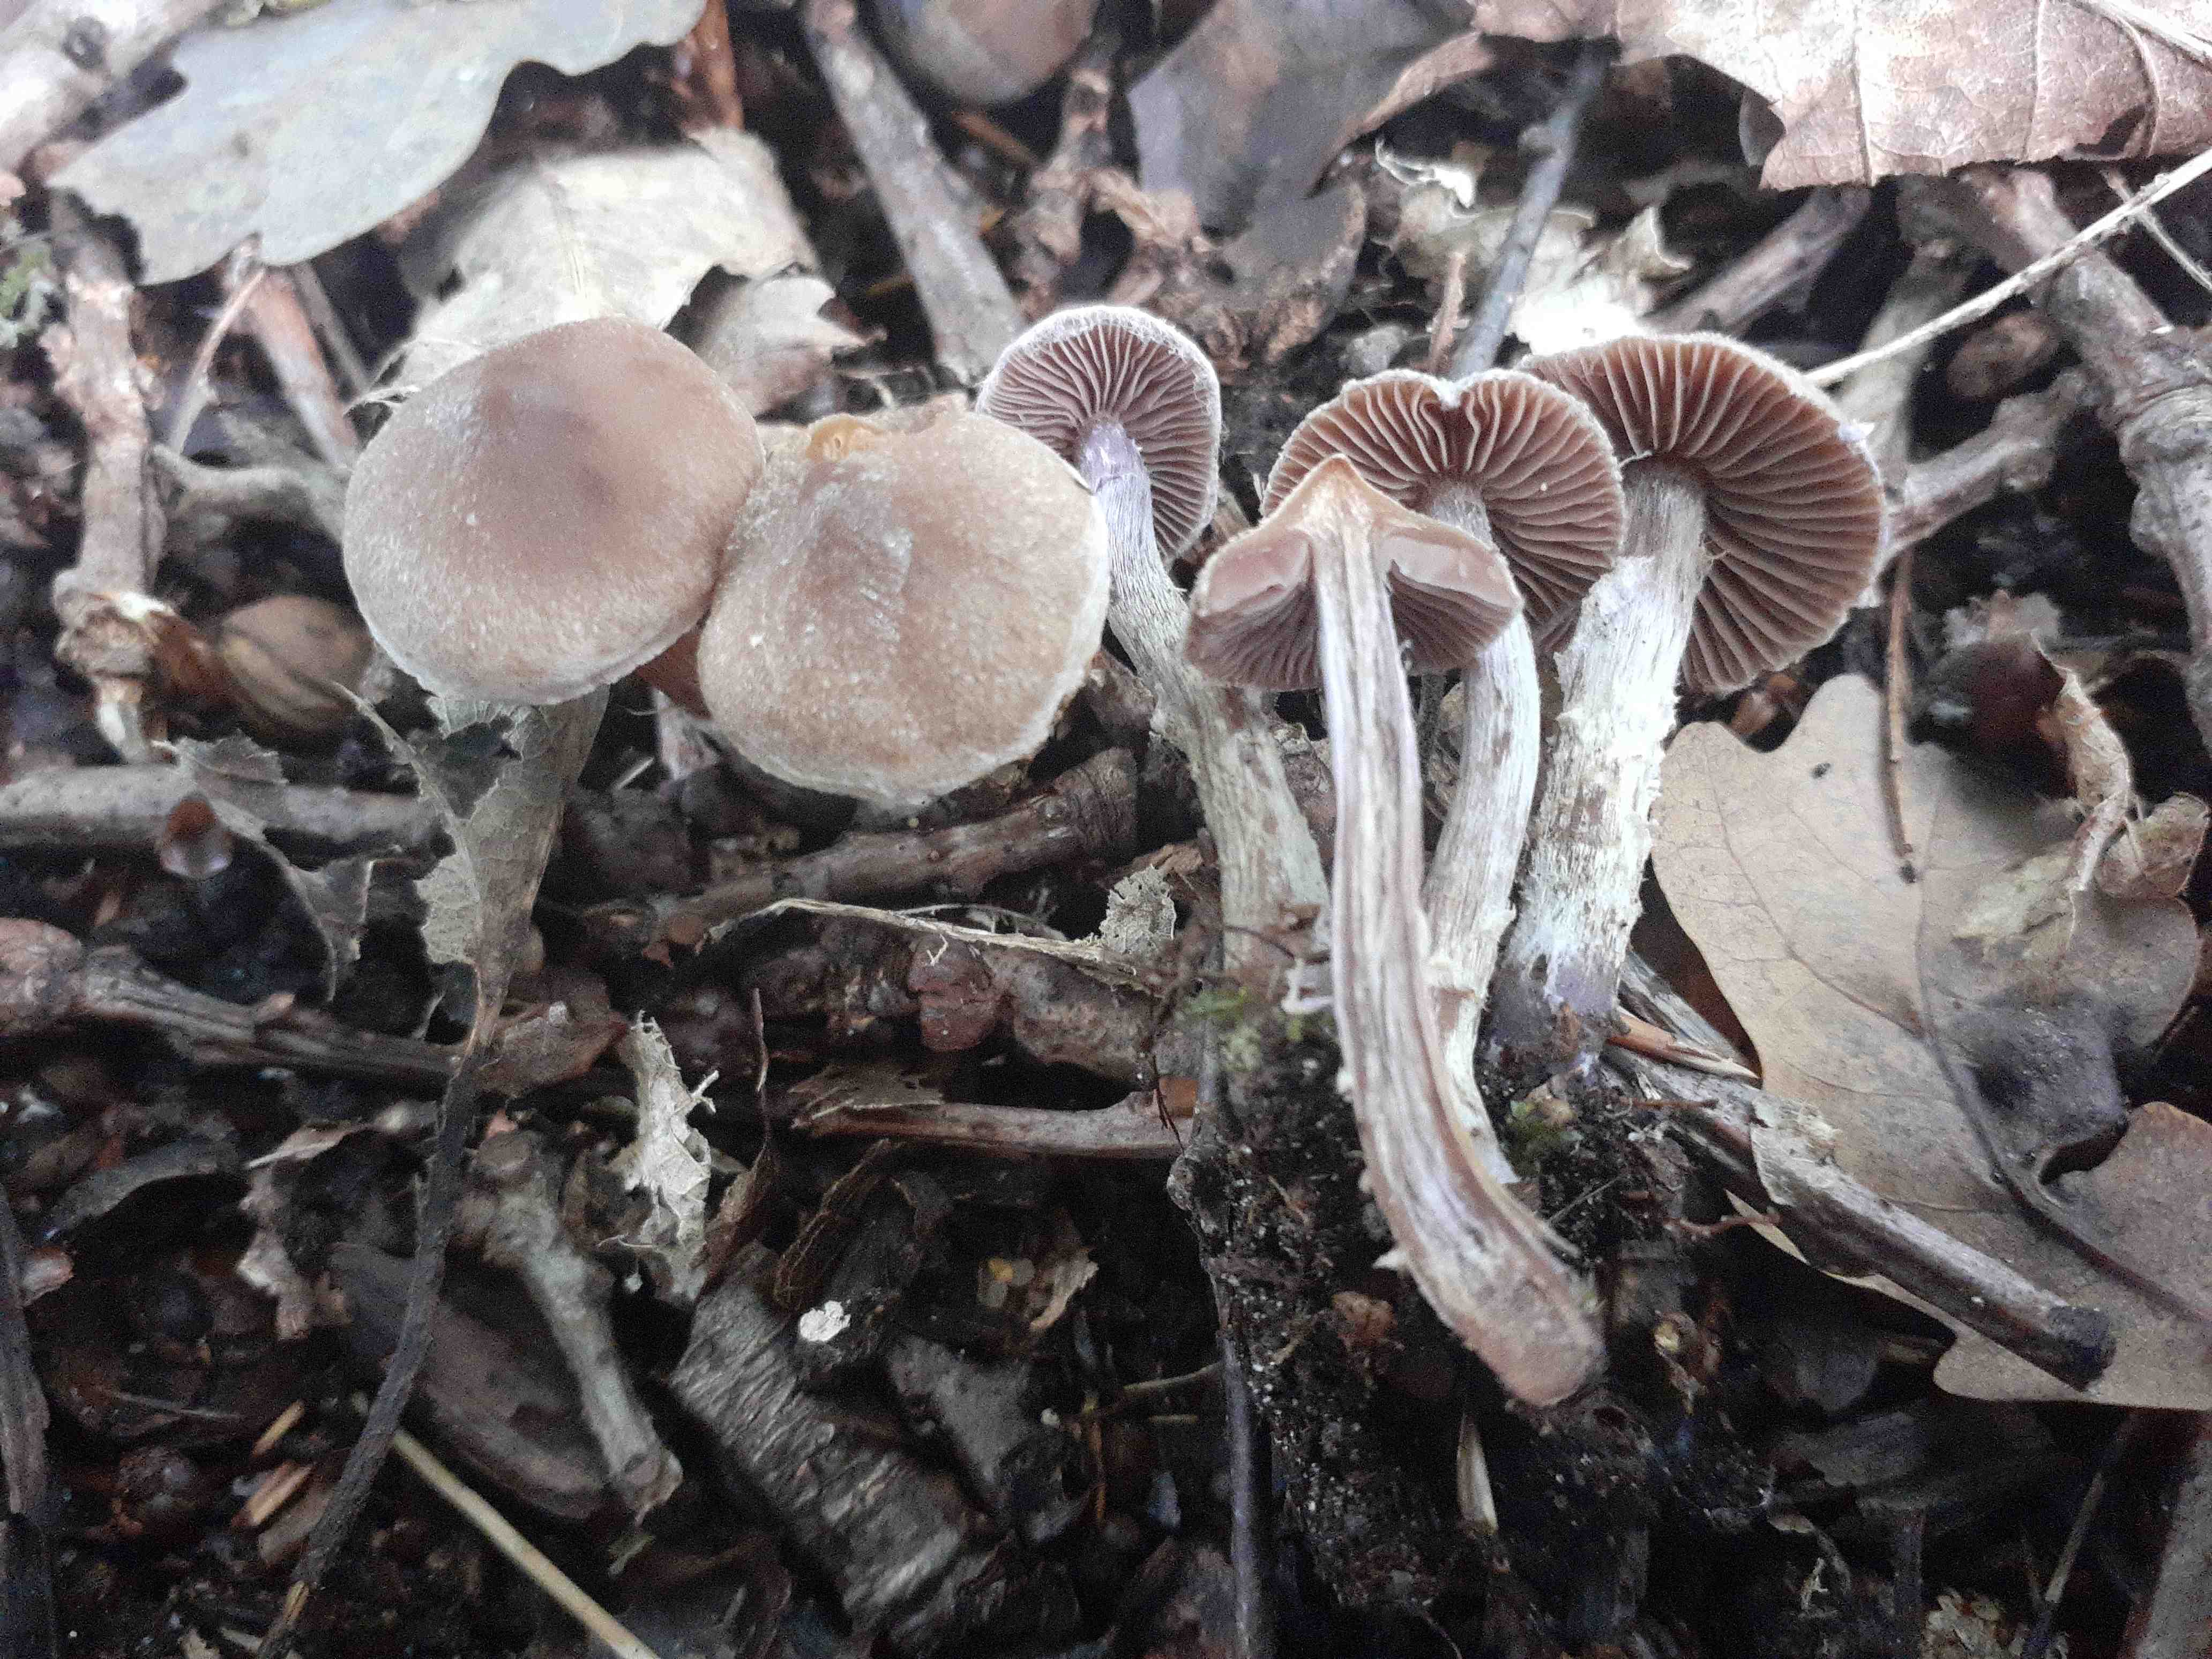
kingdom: Fungi
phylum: Basidiomycota
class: Agaricomycetes
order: Agaricales
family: Cortinariaceae
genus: Cortinarius
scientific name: Cortinarius geraniolens
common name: geranium-slørhat
